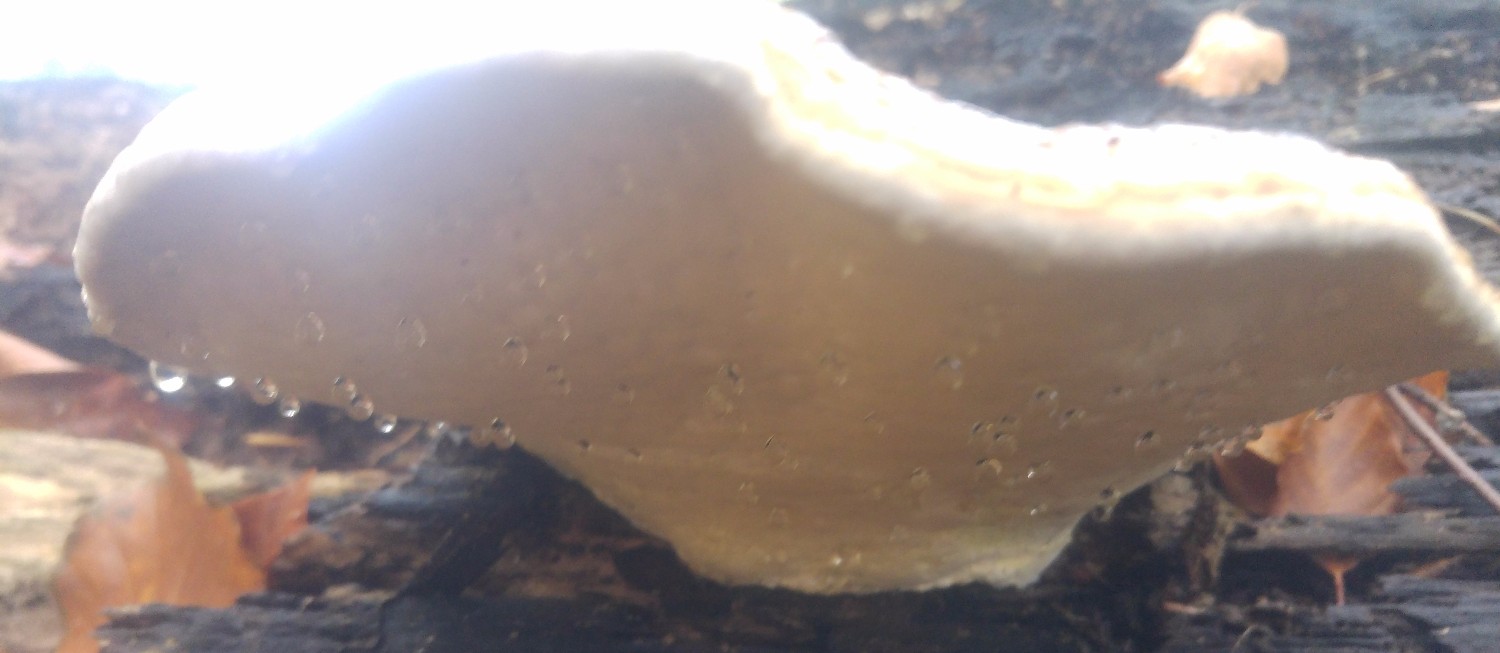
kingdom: Fungi
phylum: Basidiomycota
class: Agaricomycetes
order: Polyporales
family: Fomitopsidaceae
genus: Fomitopsis
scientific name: Fomitopsis pinicola
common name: randbæltet hovporesvamp
